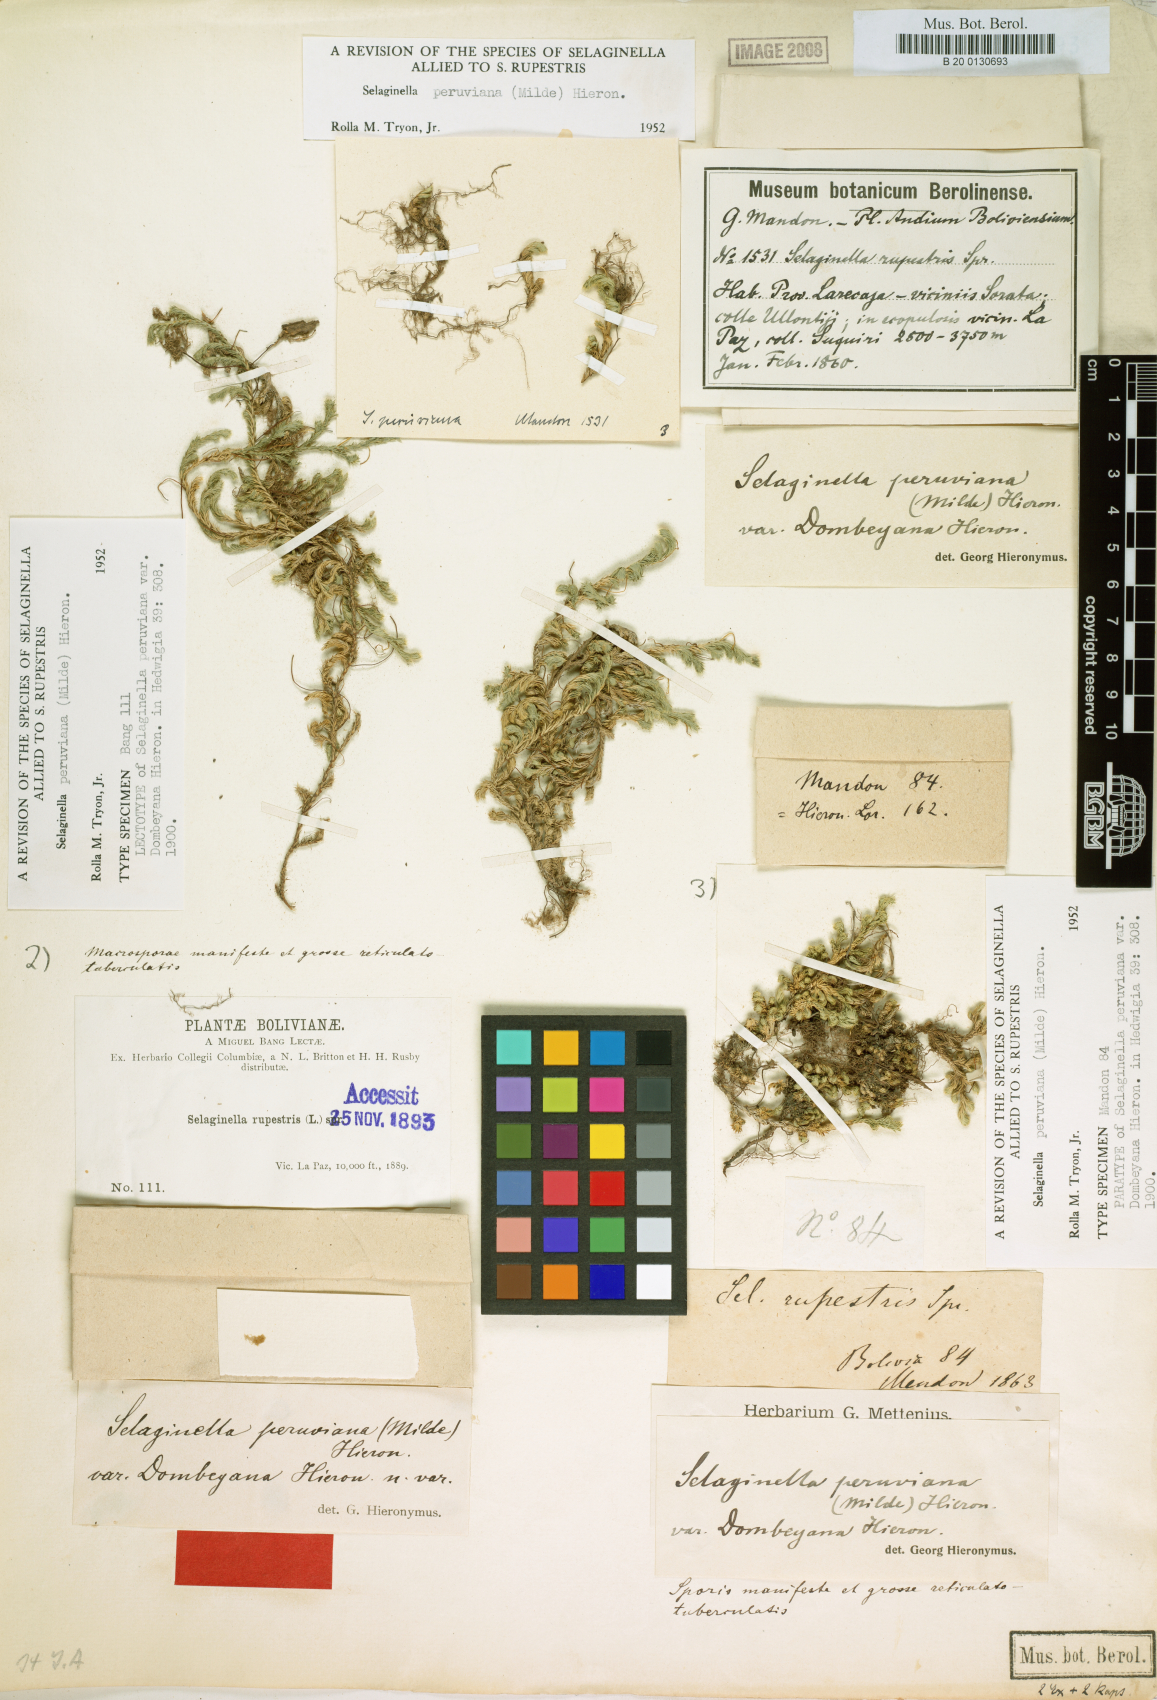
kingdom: Plantae
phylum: Tracheophyta
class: Lycopodiopsida
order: Selaginellales
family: Selaginellaceae
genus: Selaginella
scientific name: Selaginella peruviana
